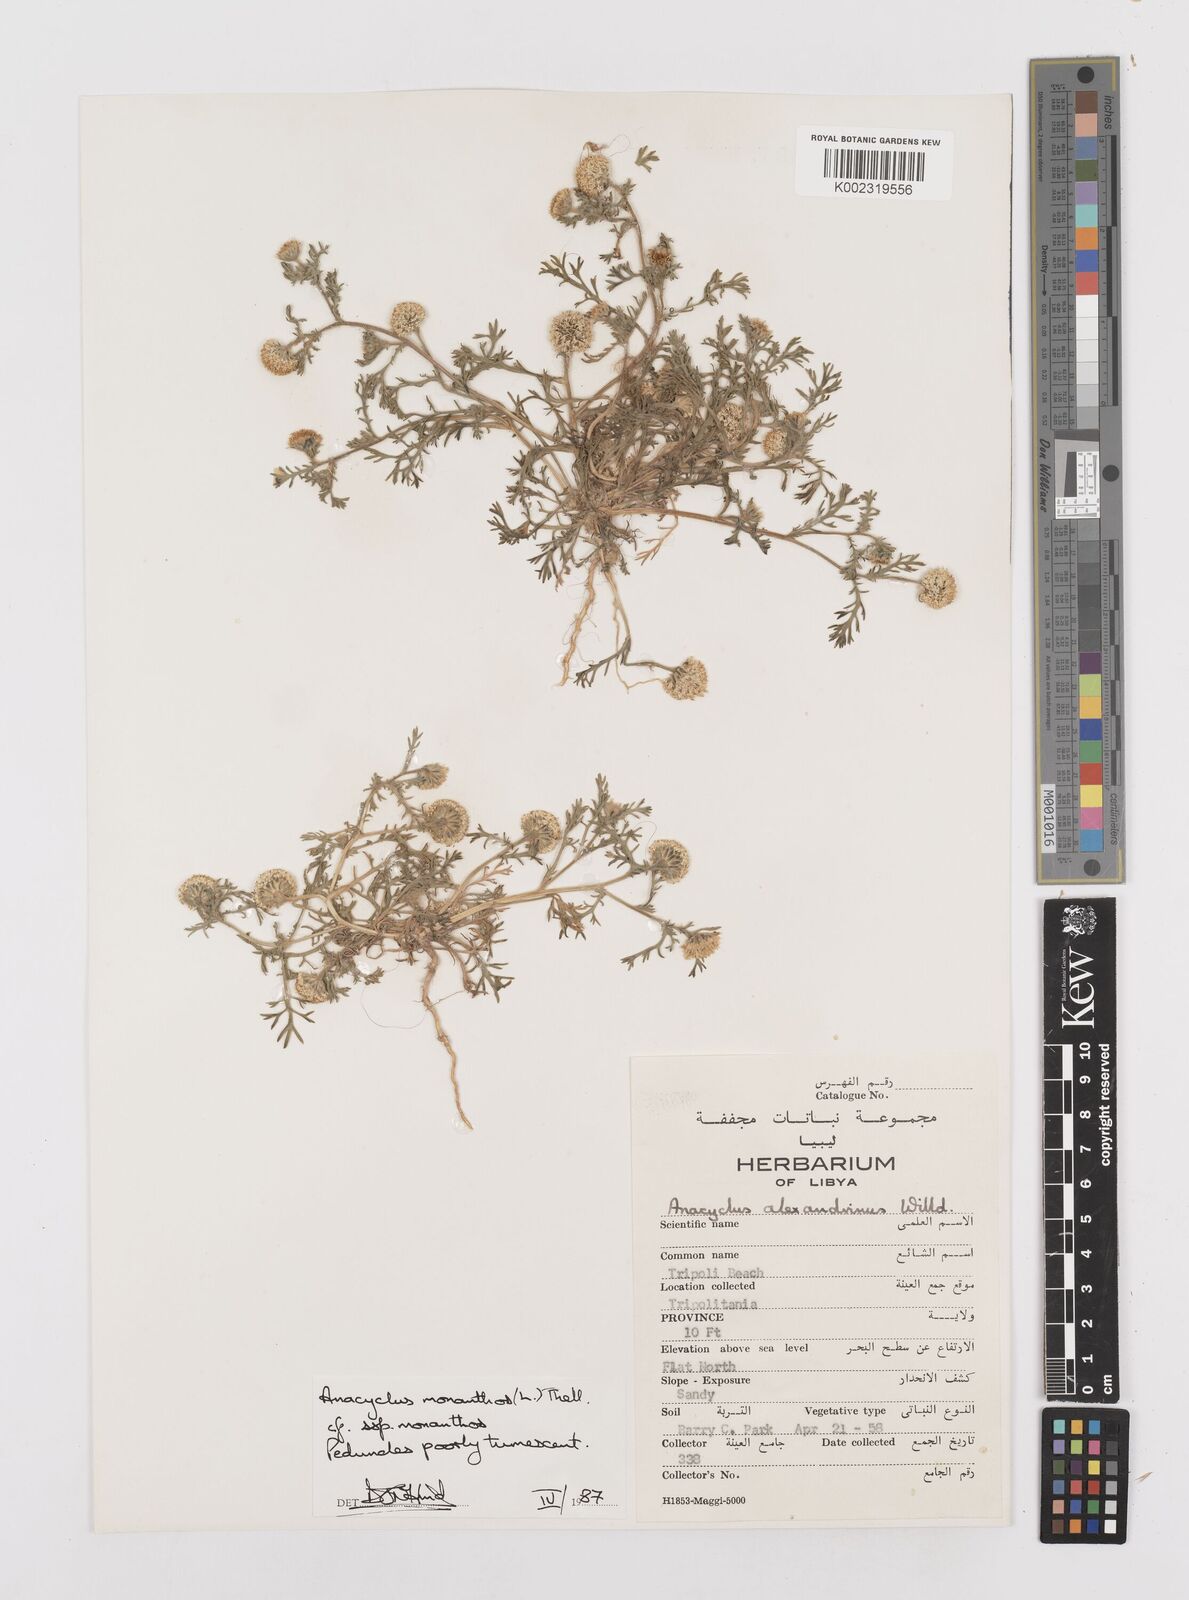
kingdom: Plantae
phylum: Tracheophyta
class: Magnoliopsida
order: Asterales
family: Asteraceae
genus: Anacyclus
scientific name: Anacyclus monanthos
